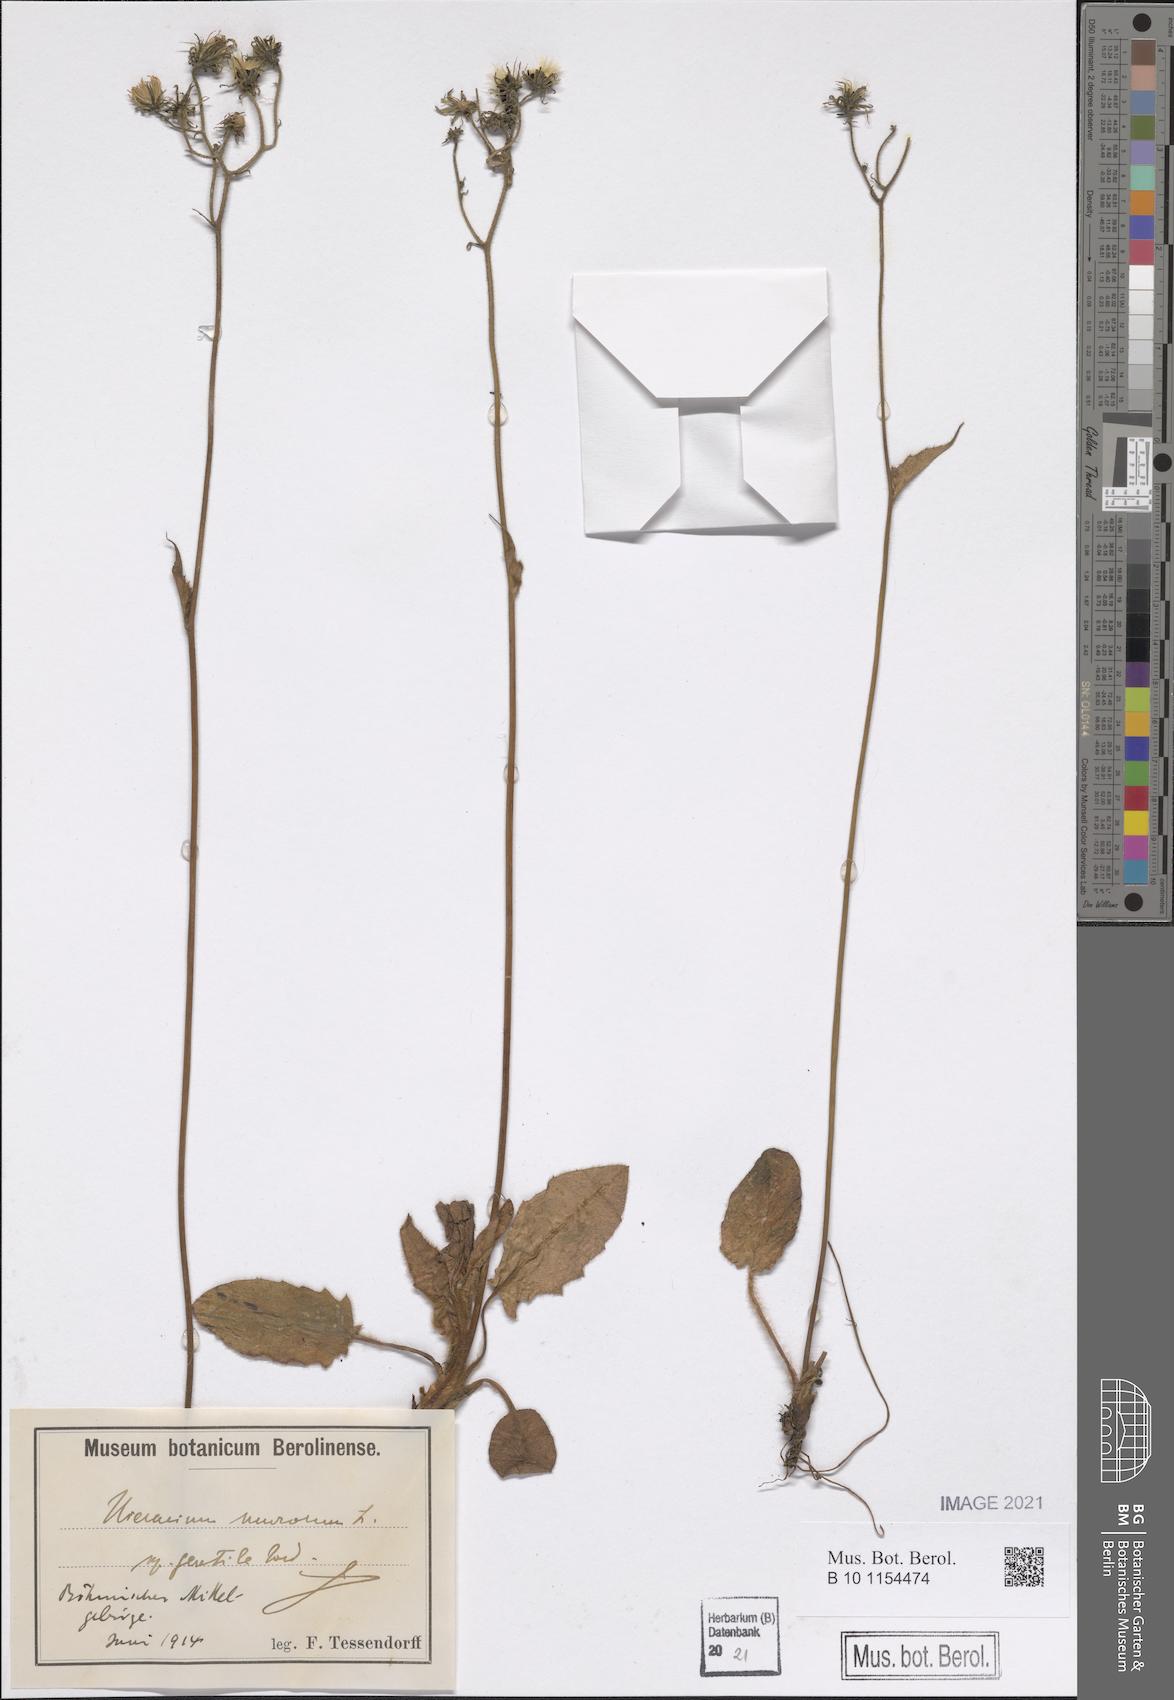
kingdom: Plantae
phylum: Tracheophyta
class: Magnoliopsida
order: Asterales
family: Asteraceae
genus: Hieracium
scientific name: Hieracium murorum
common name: Wall hawkweed
